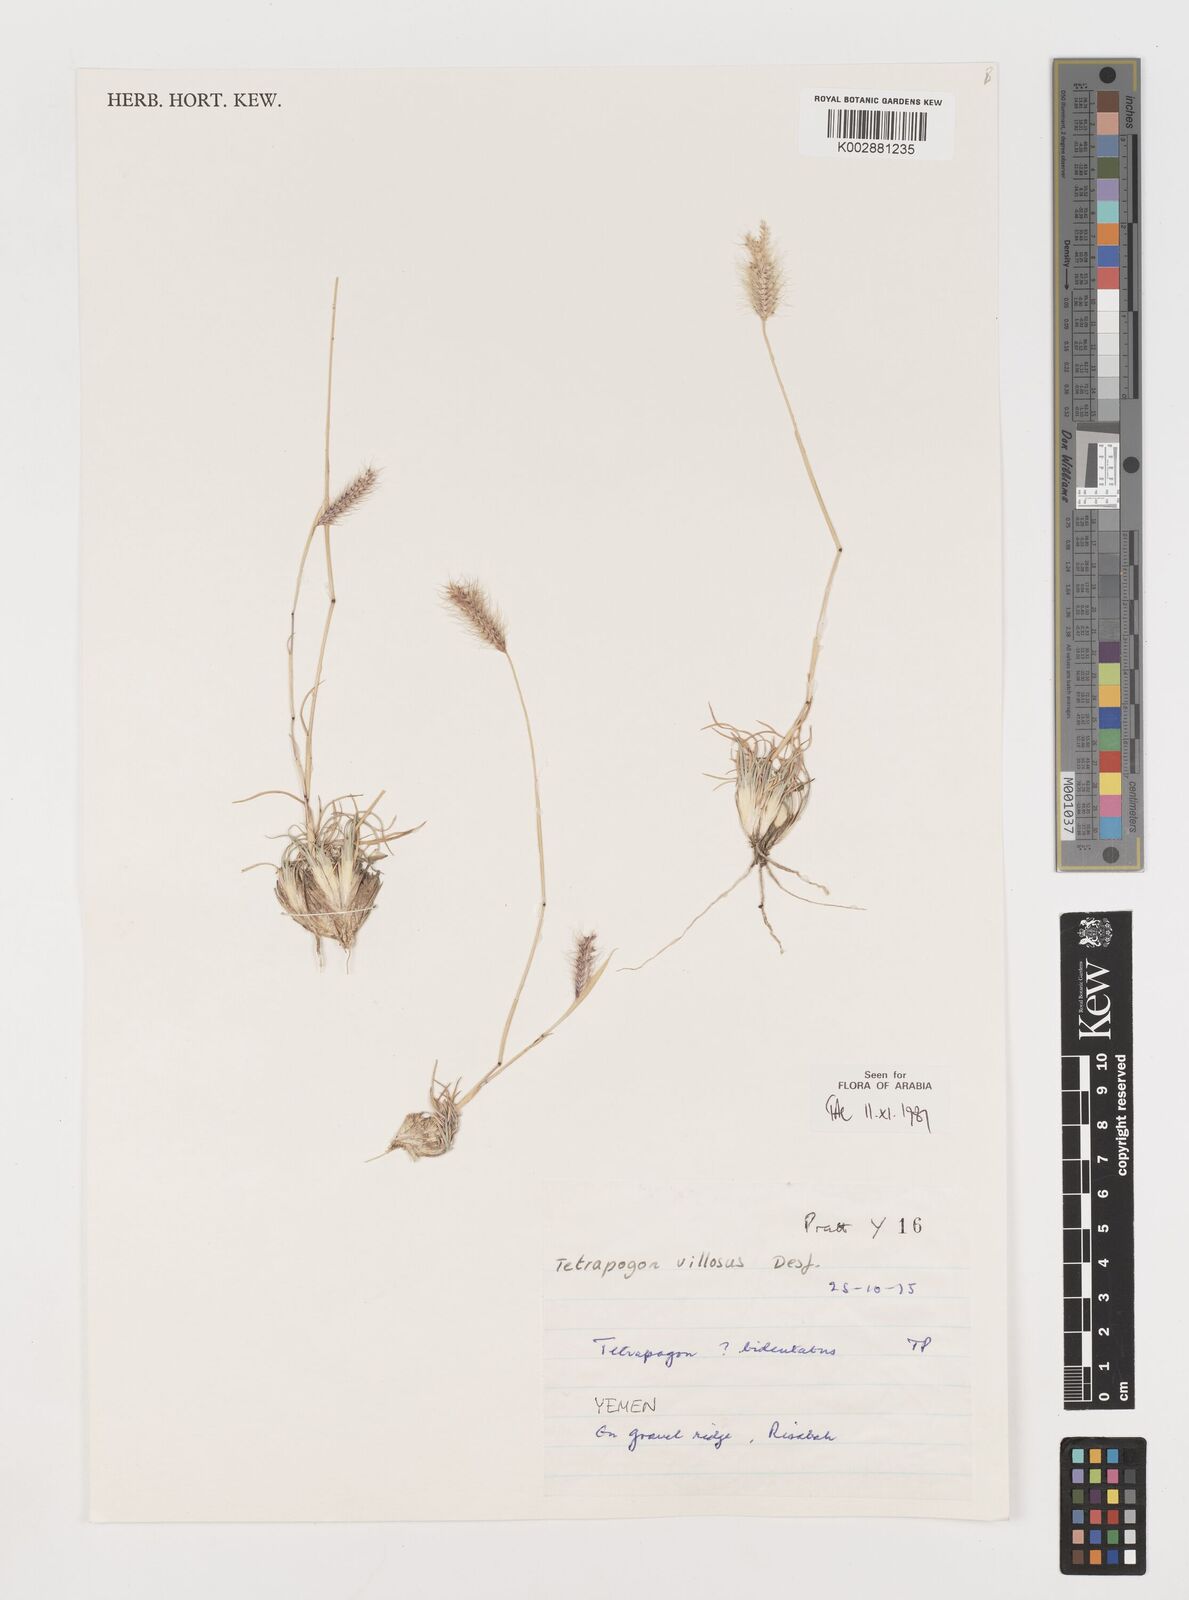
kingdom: Plantae
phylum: Tracheophyta
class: Liliopsida
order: Poales
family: Poaceae
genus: Tetrapogon
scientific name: Tetrapogon villosus
